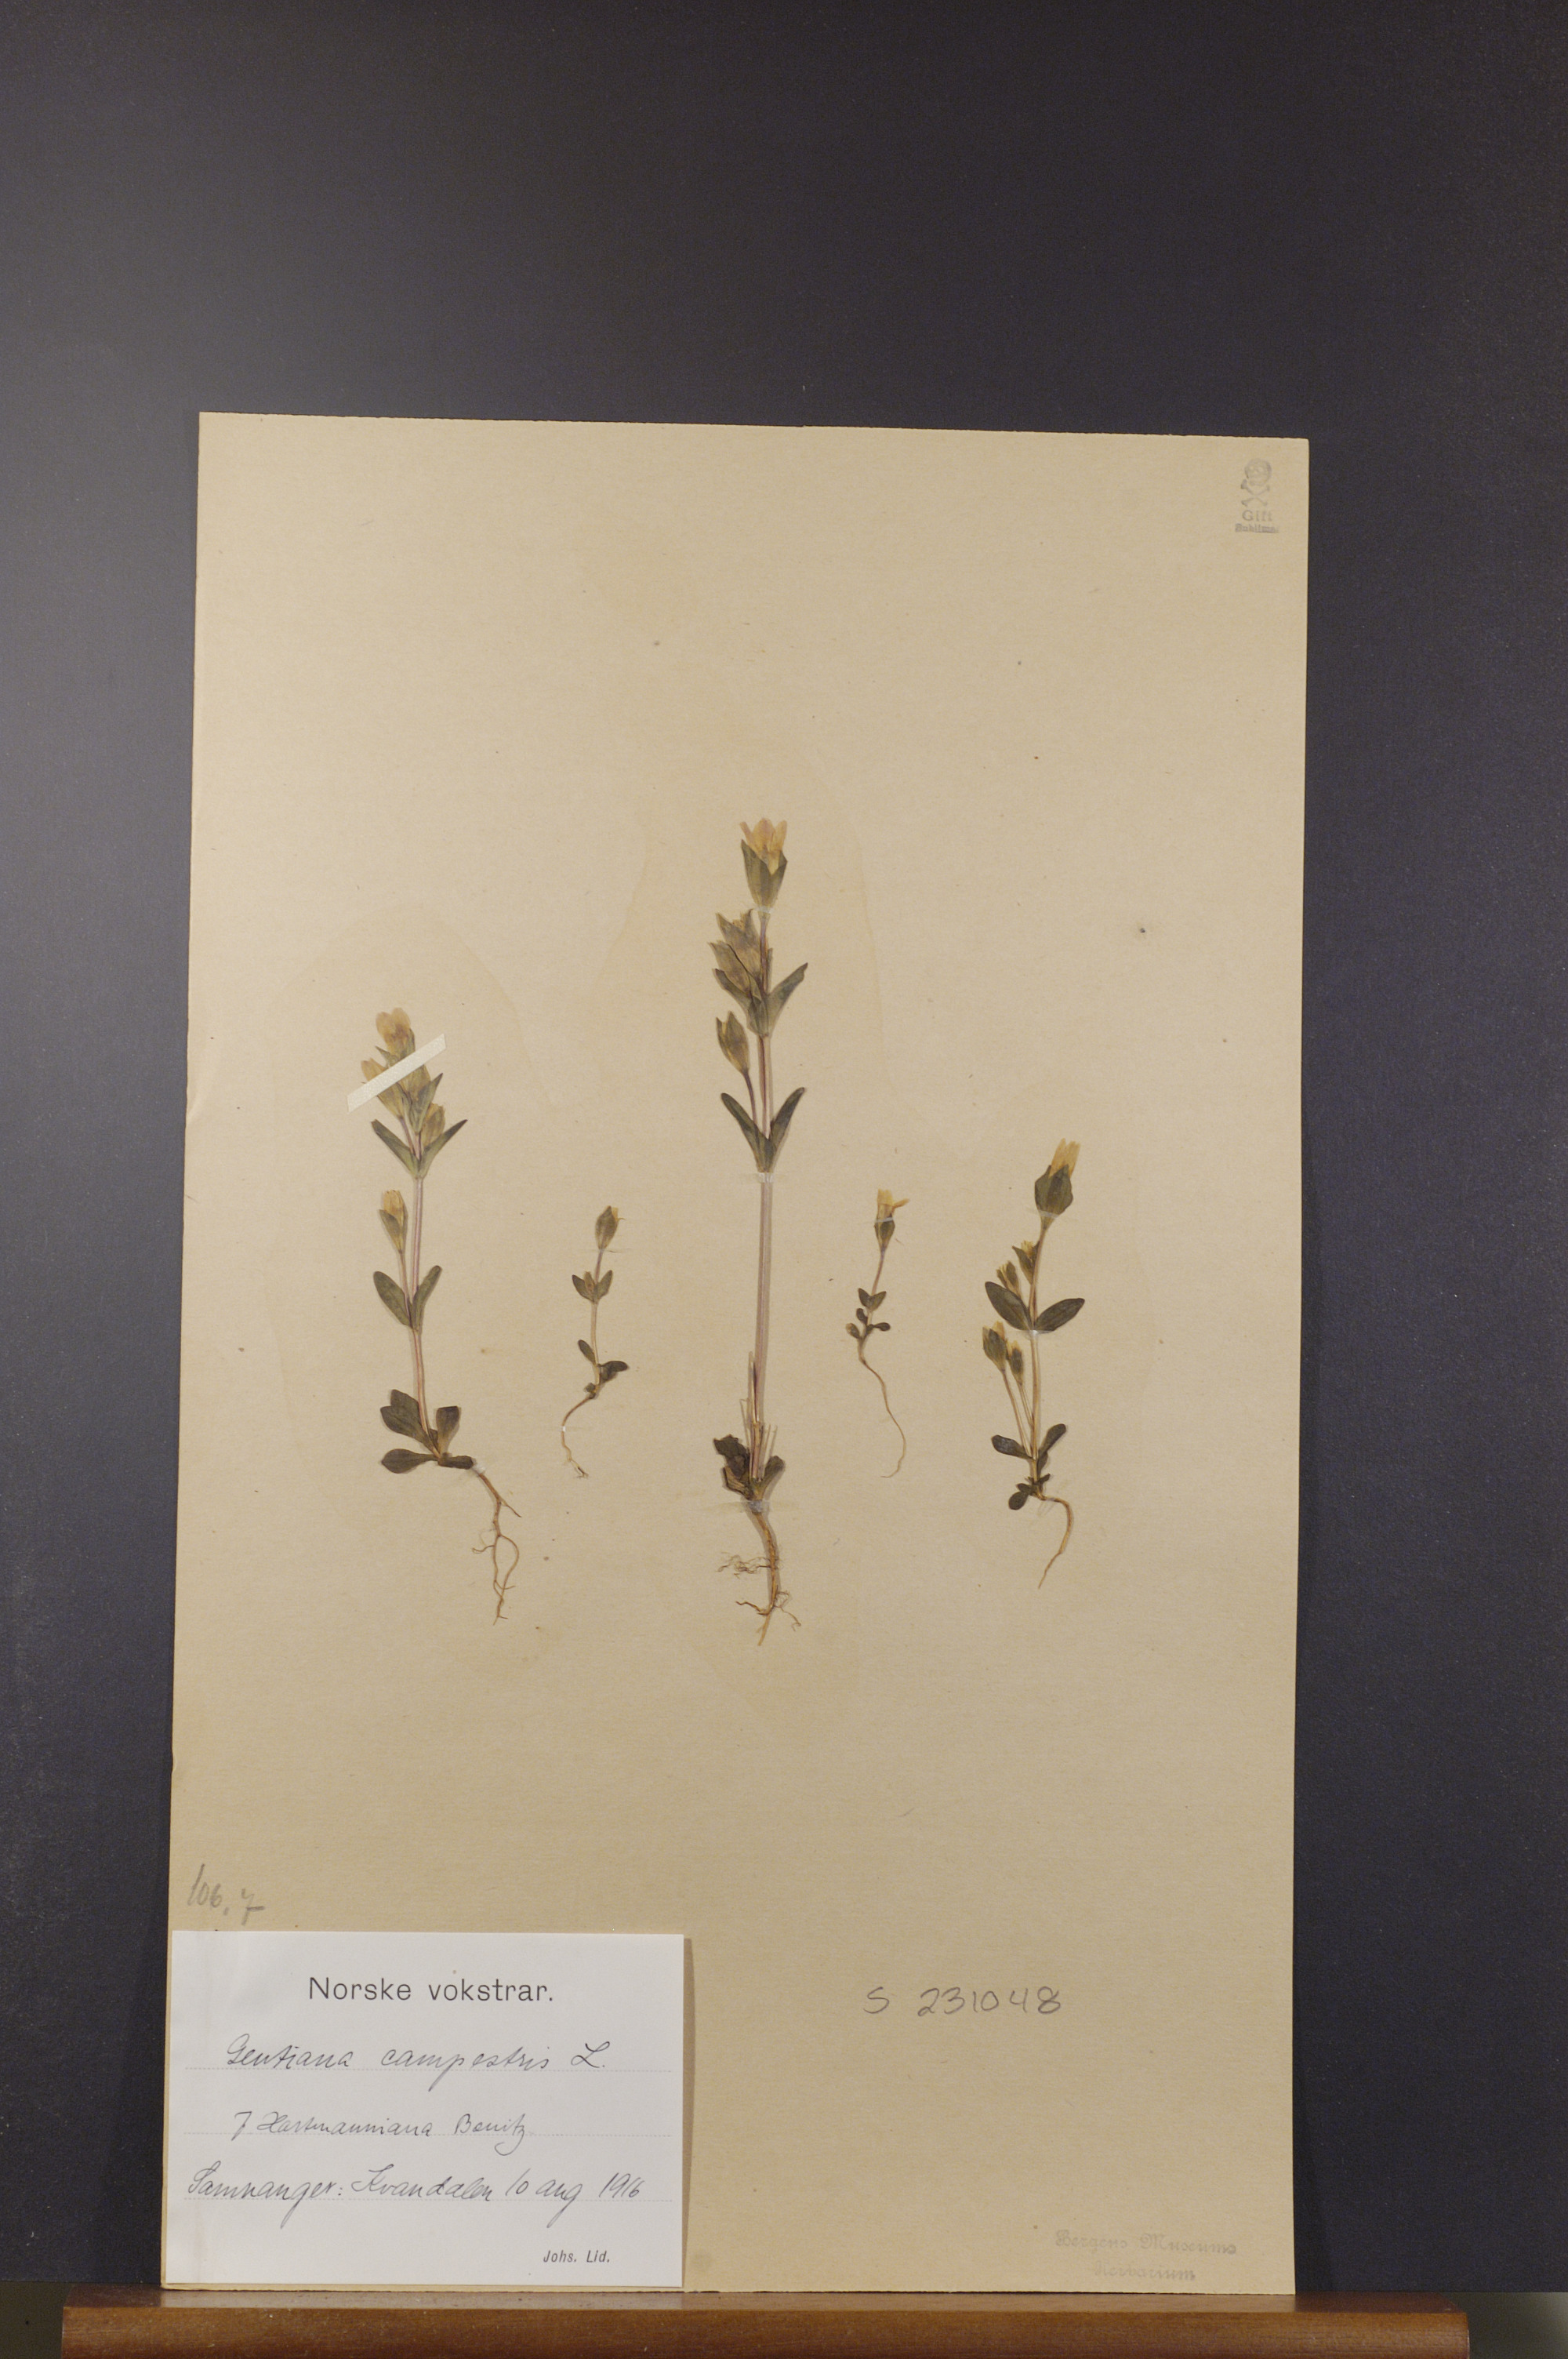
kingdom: Plantae
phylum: Tracheophyta
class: Magnoliopsida
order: Gentianales
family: Gentianaceae
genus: Gentianella
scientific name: Gentianella campestris
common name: Field gentian
